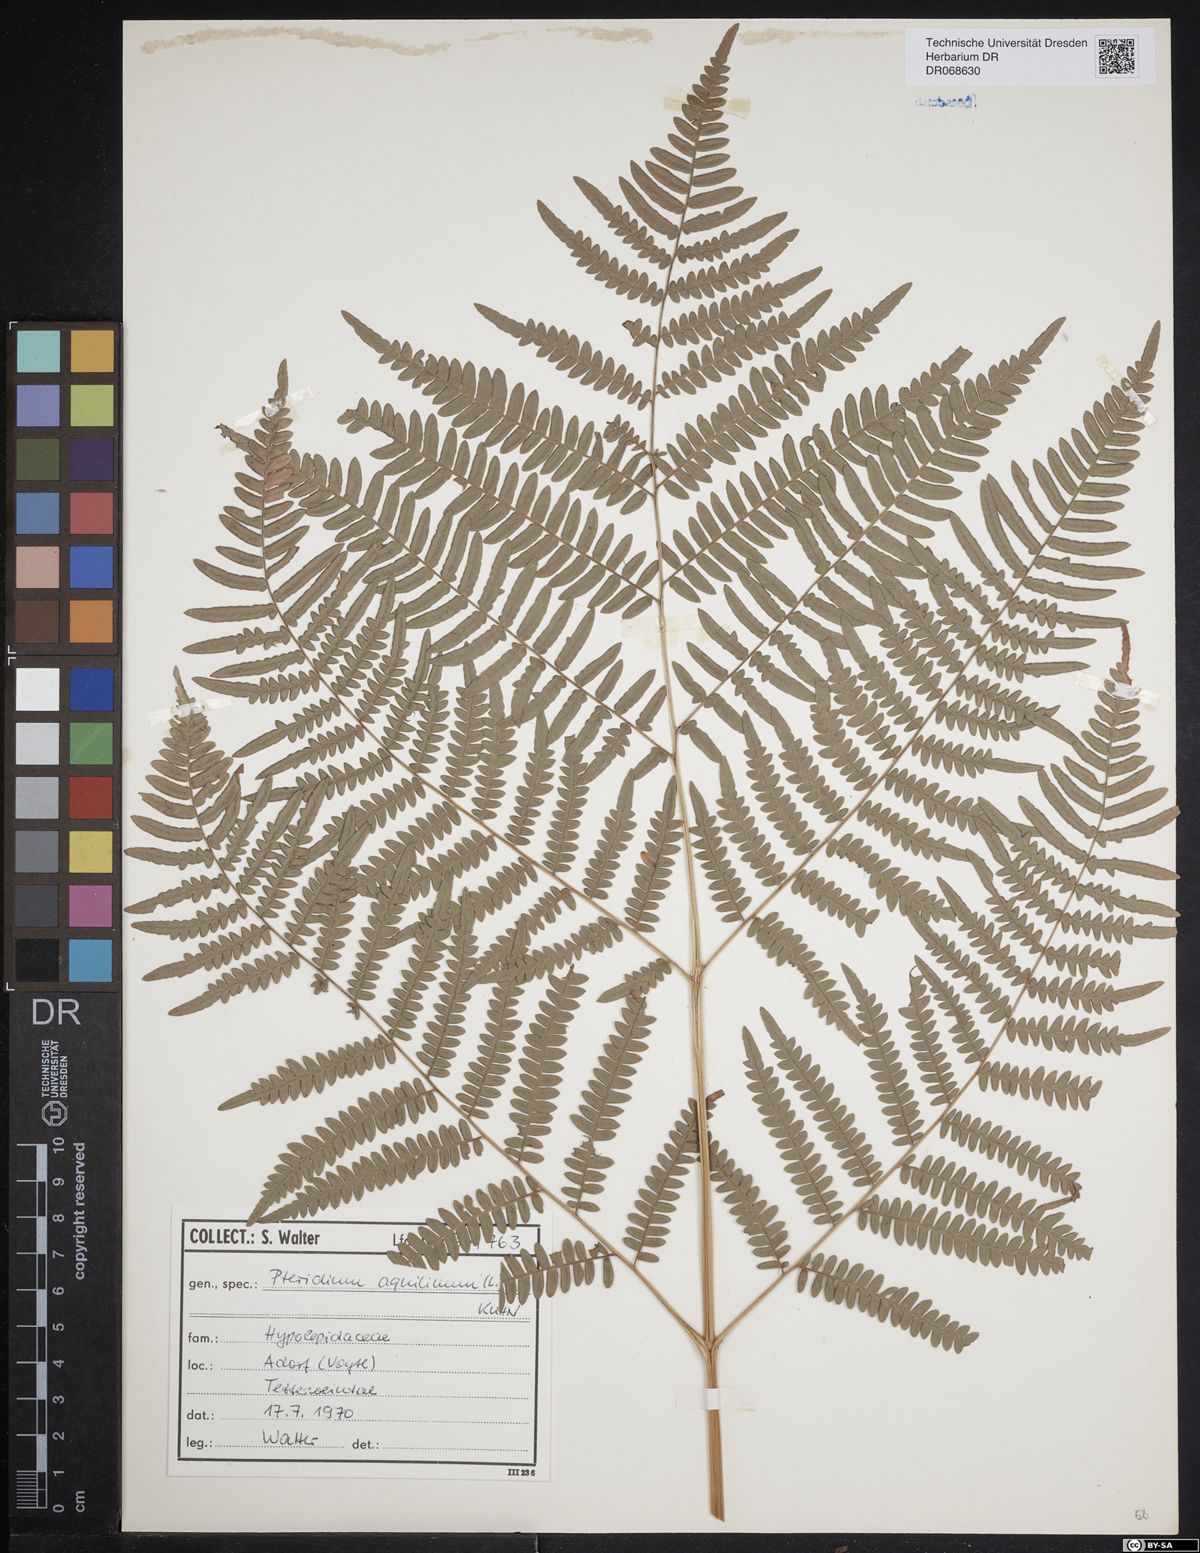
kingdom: Plantae
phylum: Tracheophyta
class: Polypodiopsida
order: Polypodiales
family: Dennstaedtiaceae
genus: Pteridium
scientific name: Pteridium aquilinum
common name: Bracken
